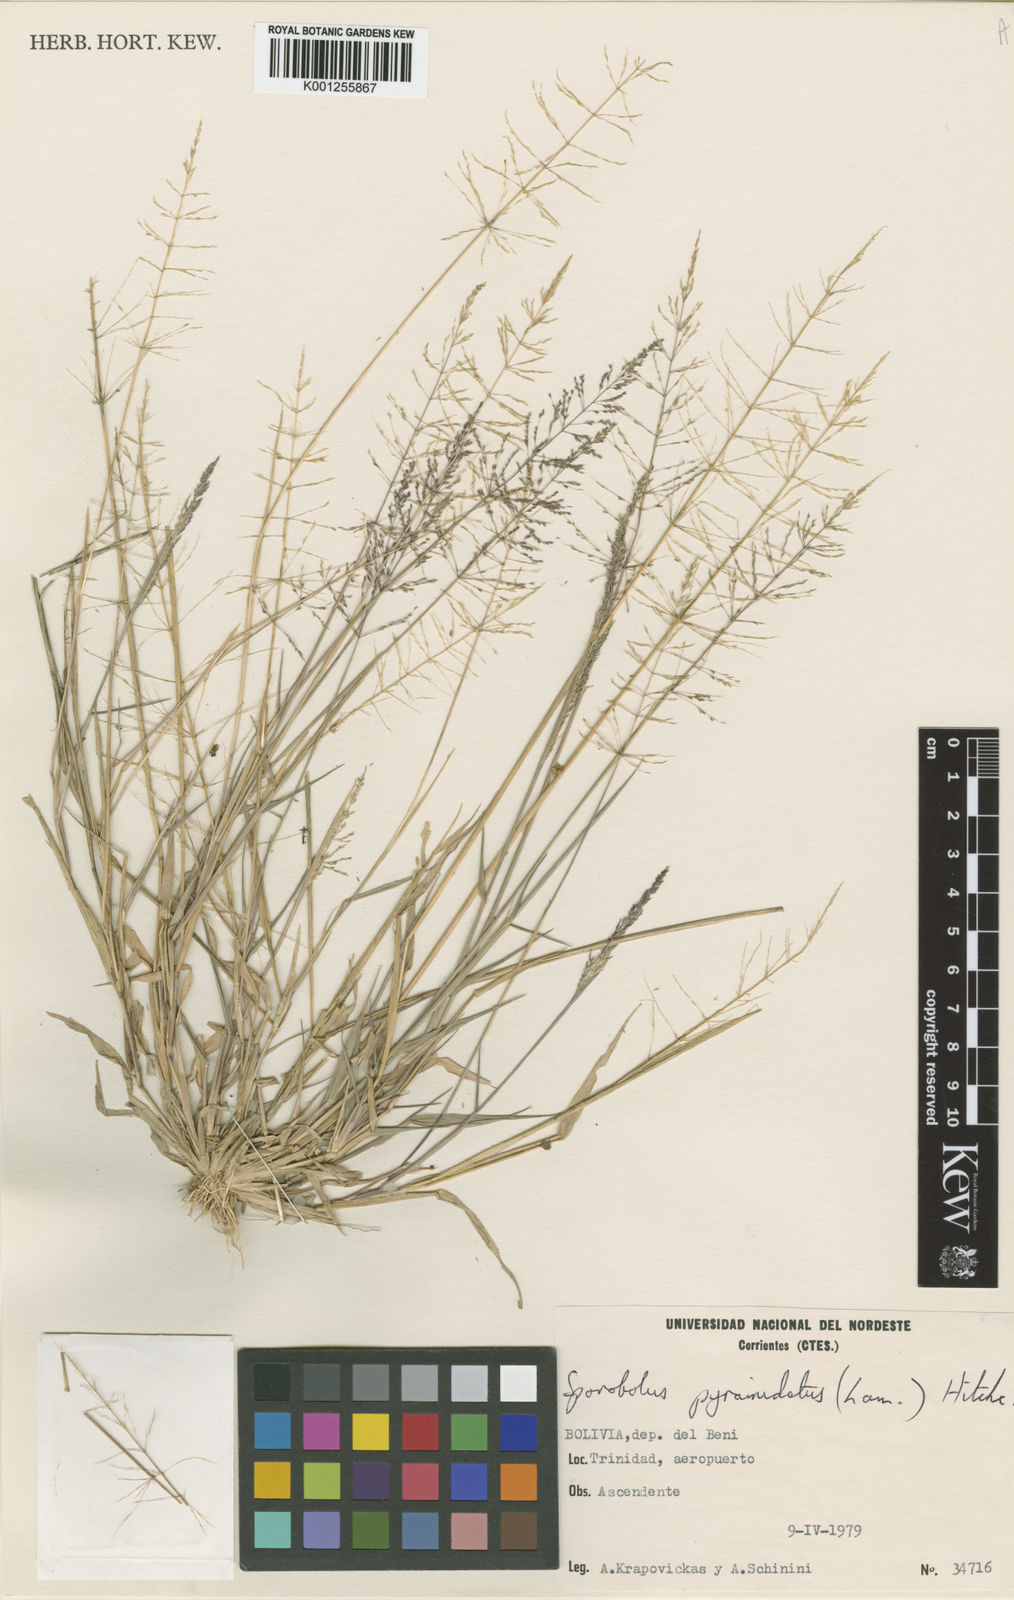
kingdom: Plantae
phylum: Tracheophyta
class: Liliopsida
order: Poales
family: Poaceae
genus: Sporobolus
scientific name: Sporobolus pyramidatus
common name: Whorled dropseed
